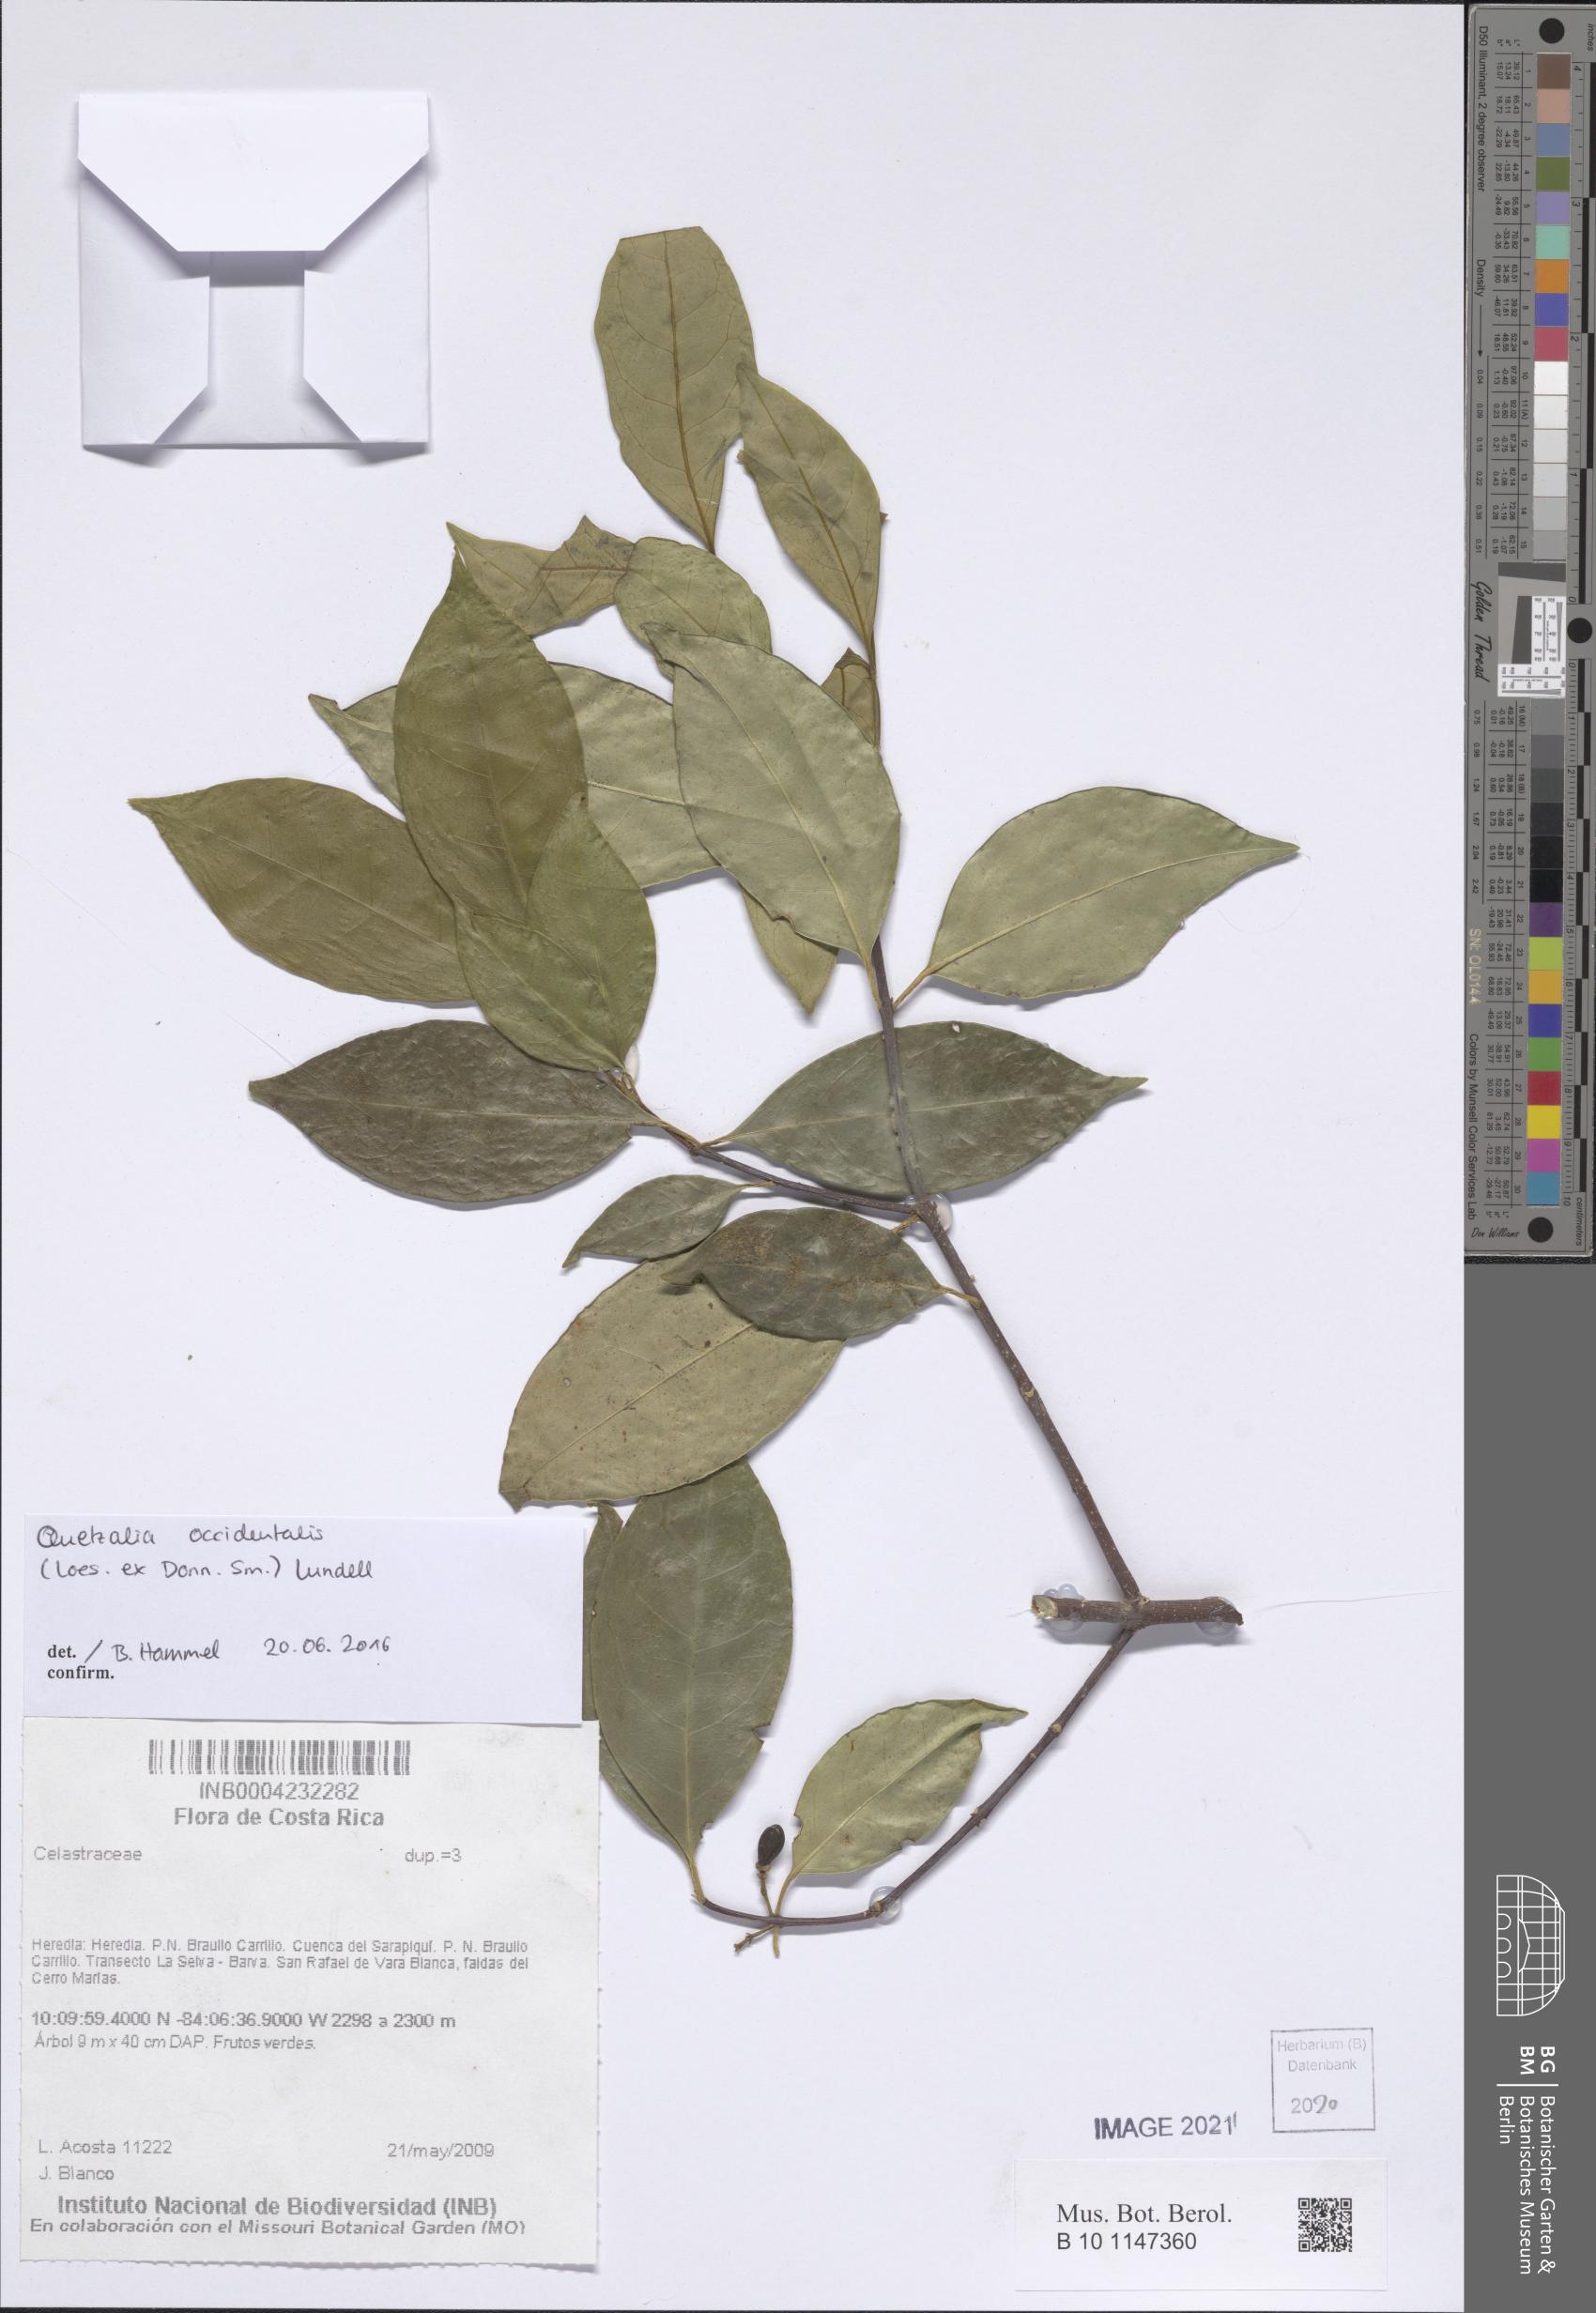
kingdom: Plantae
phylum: Tracheophyta
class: Magnoliopsida
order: Celastrales
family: Celastraceae
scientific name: Celastraceae
